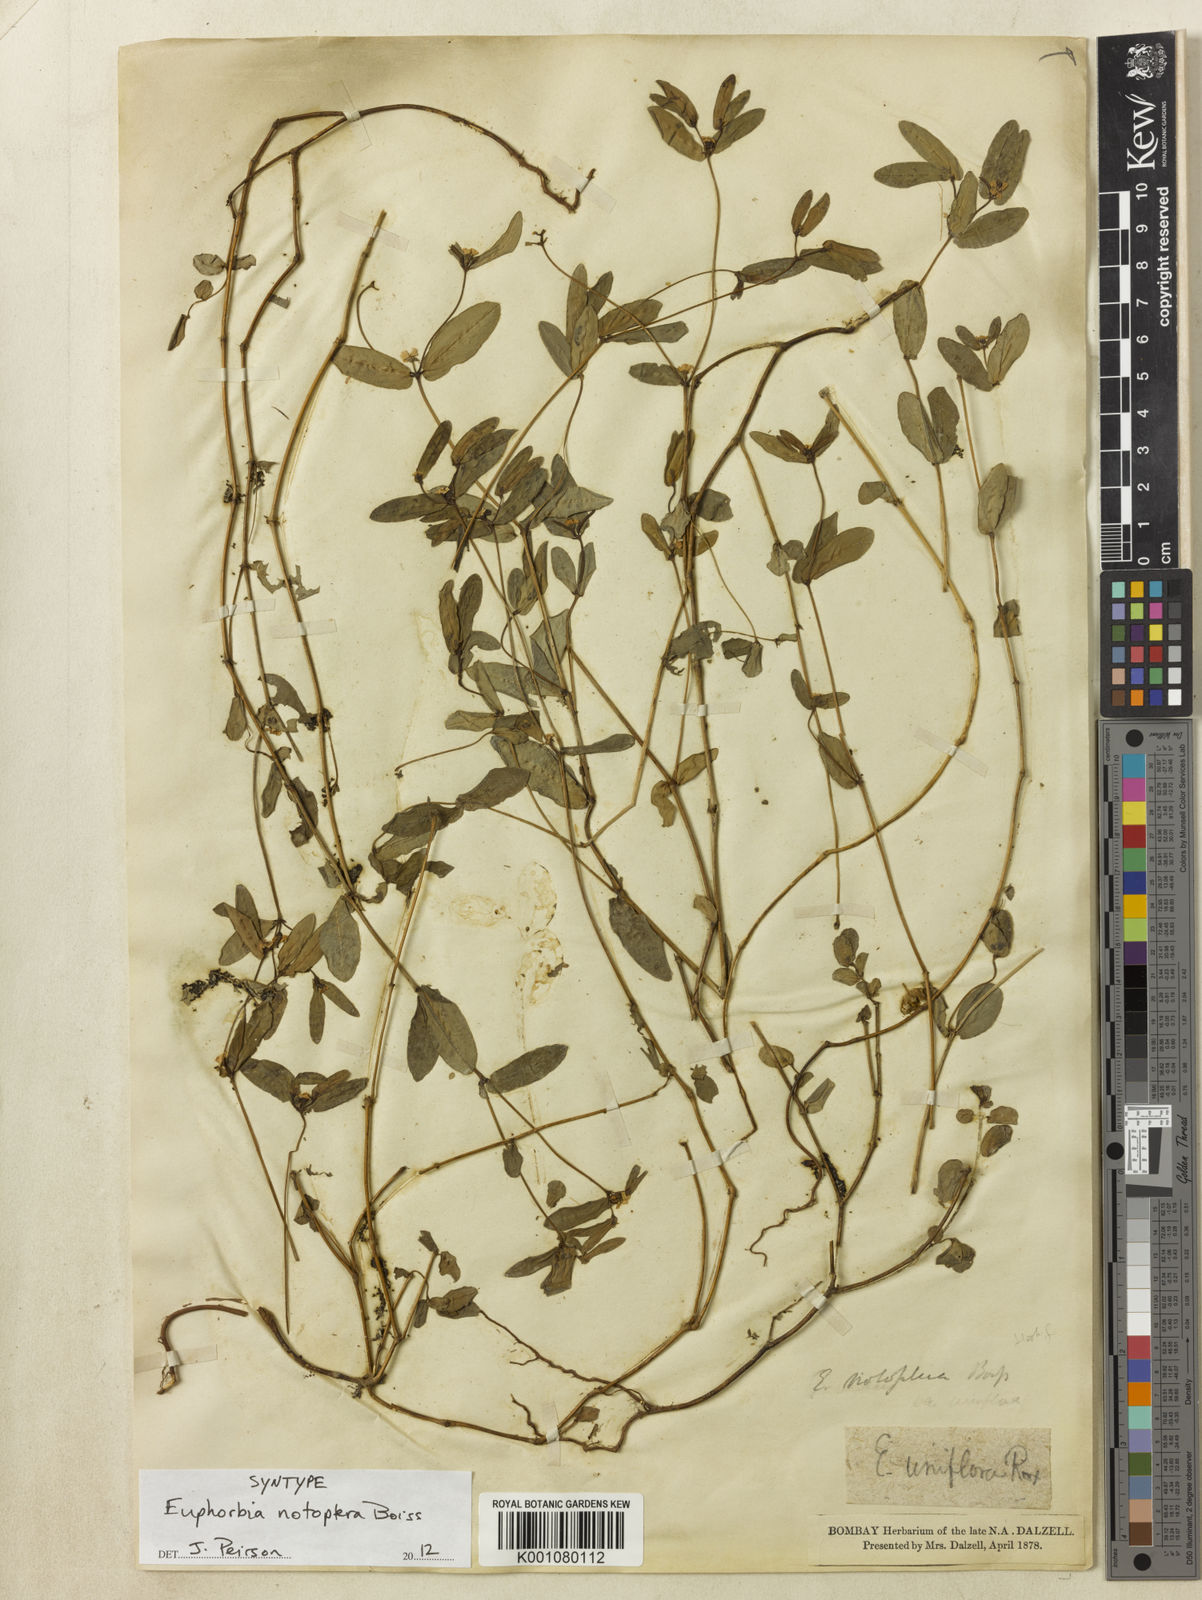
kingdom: Plantae
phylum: Tracheophyta
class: Magnoliopsida
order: Malpighiales
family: Euphorbiaceae
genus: Euphorbia
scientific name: Euphorbia notoptera
